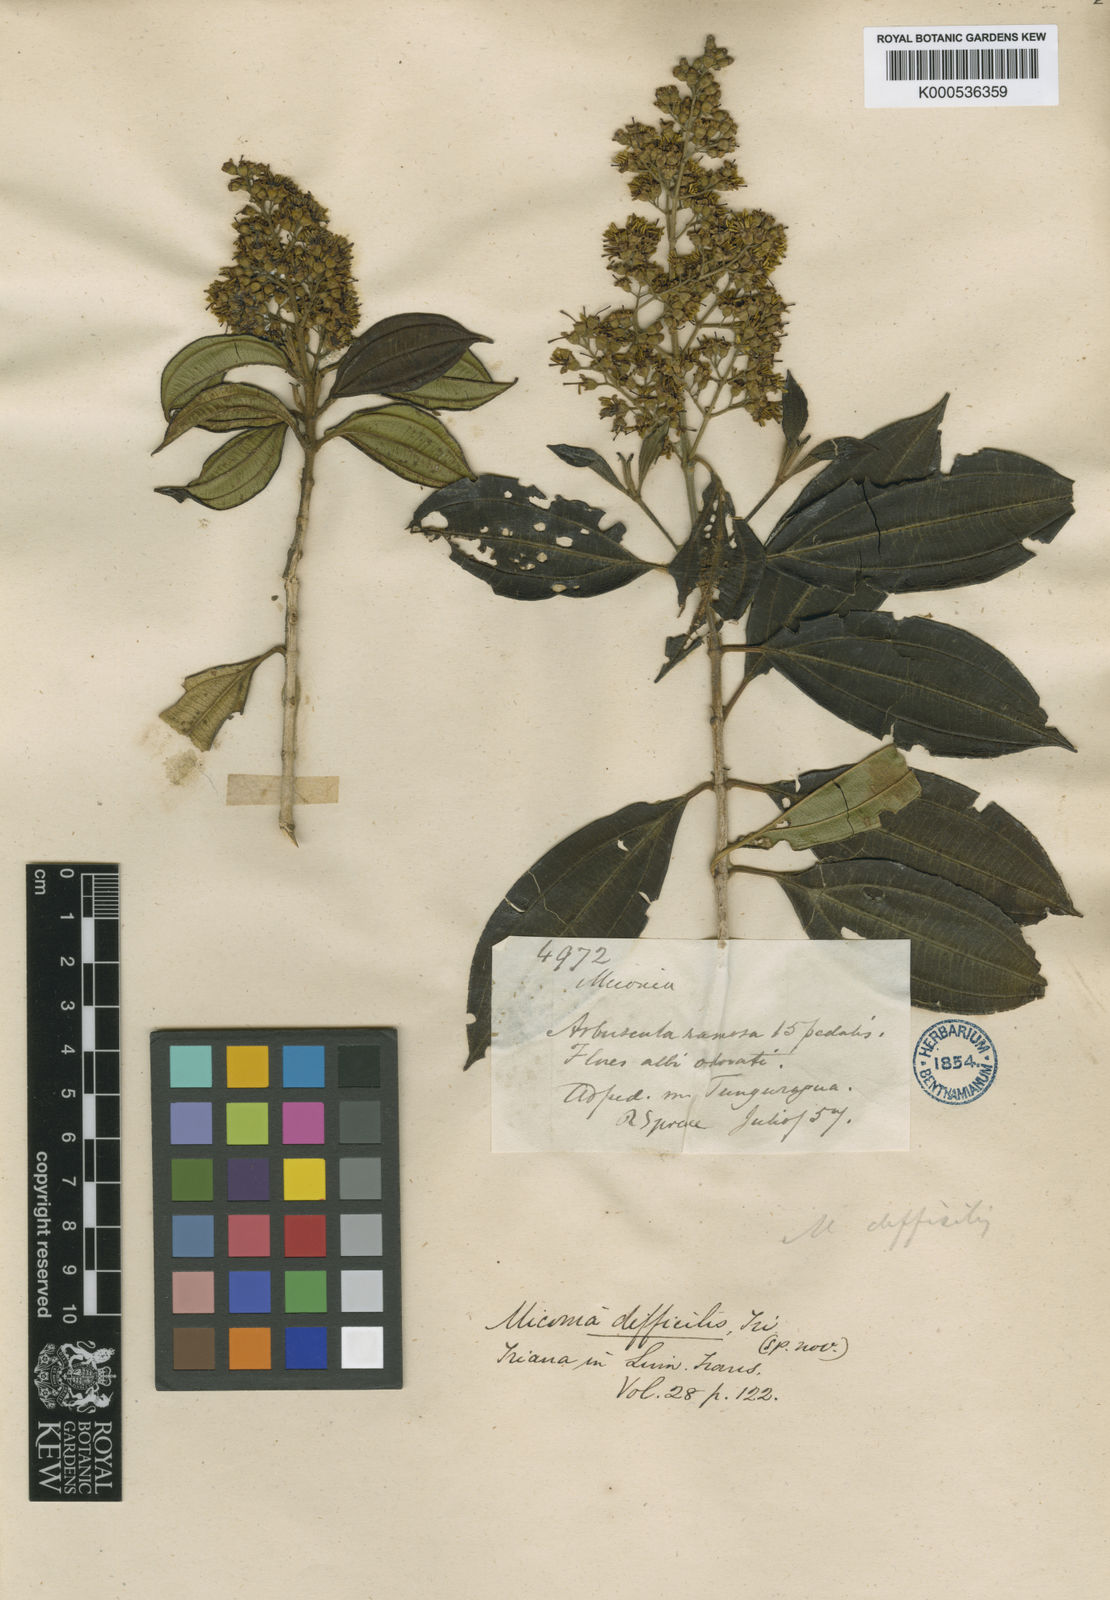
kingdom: Plantae
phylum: Tracheophyta
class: Magnoliopsida
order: Myrtales
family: Melastomataceae
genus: Miconia
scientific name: Miconia difficilis
